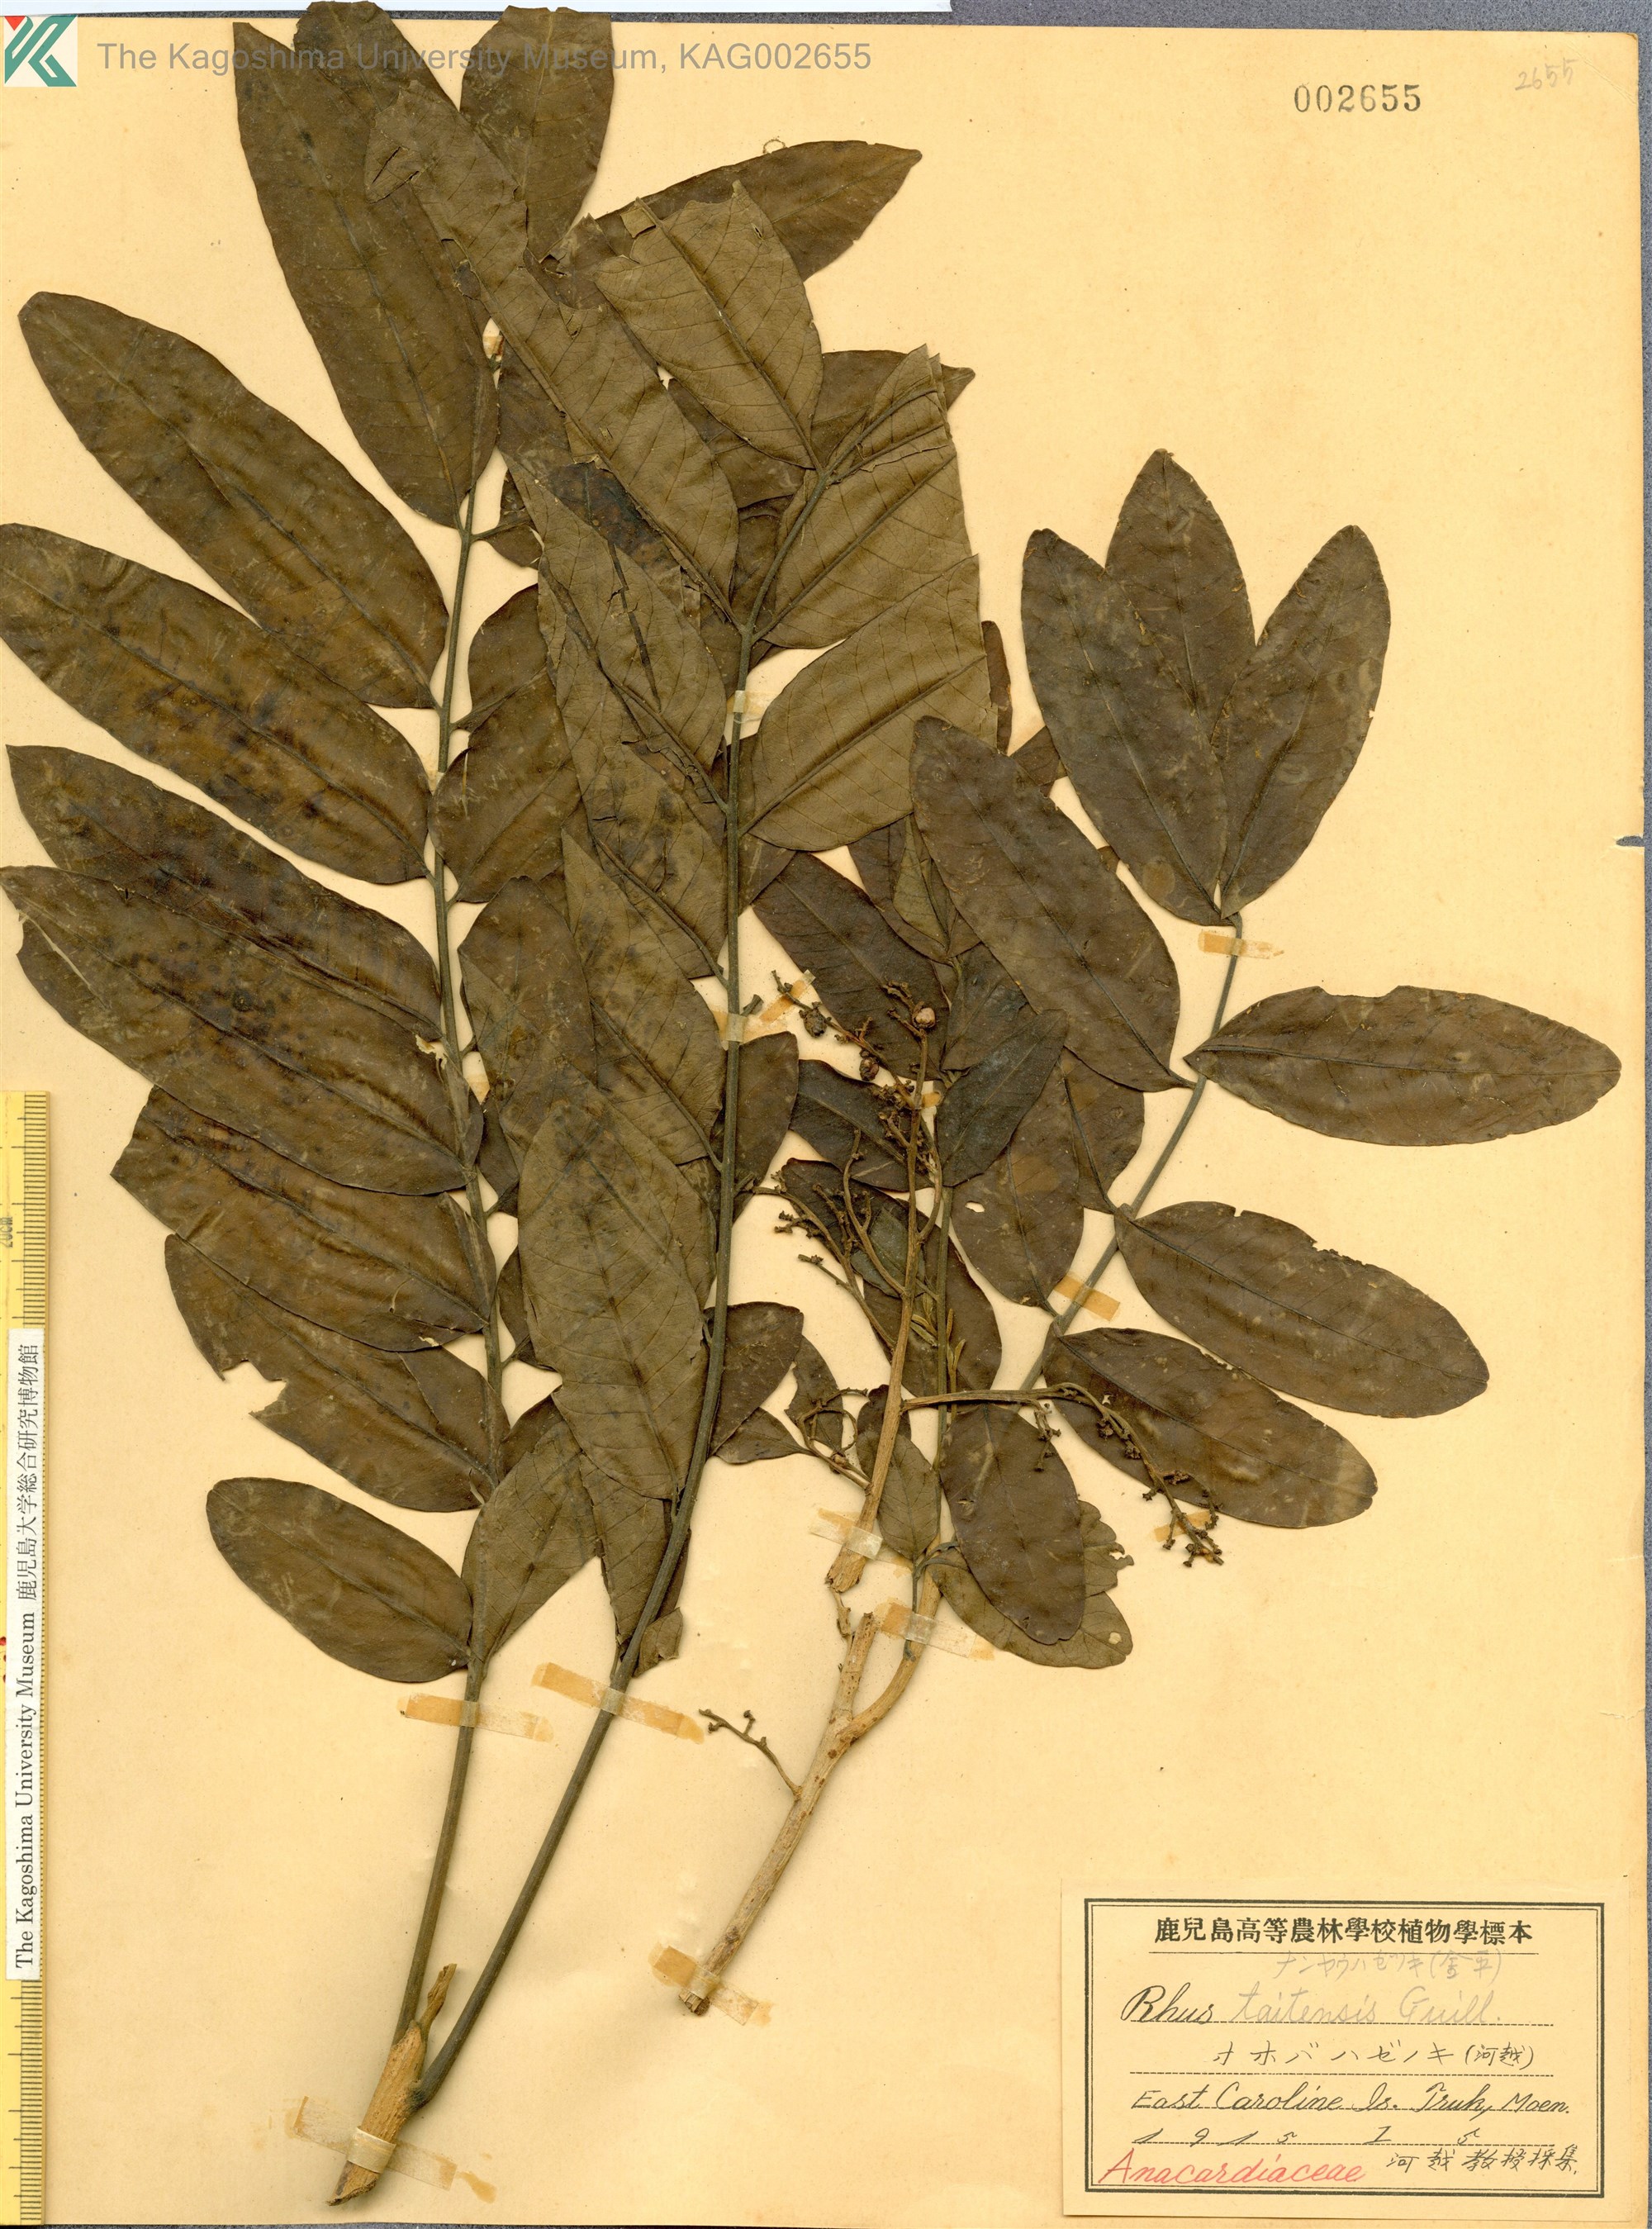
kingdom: Plantae
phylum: Tracheophyta
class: Magnoliopsida
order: Sapindales
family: Anacardiaceae
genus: Melanococca
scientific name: Melanococca tomentosa
